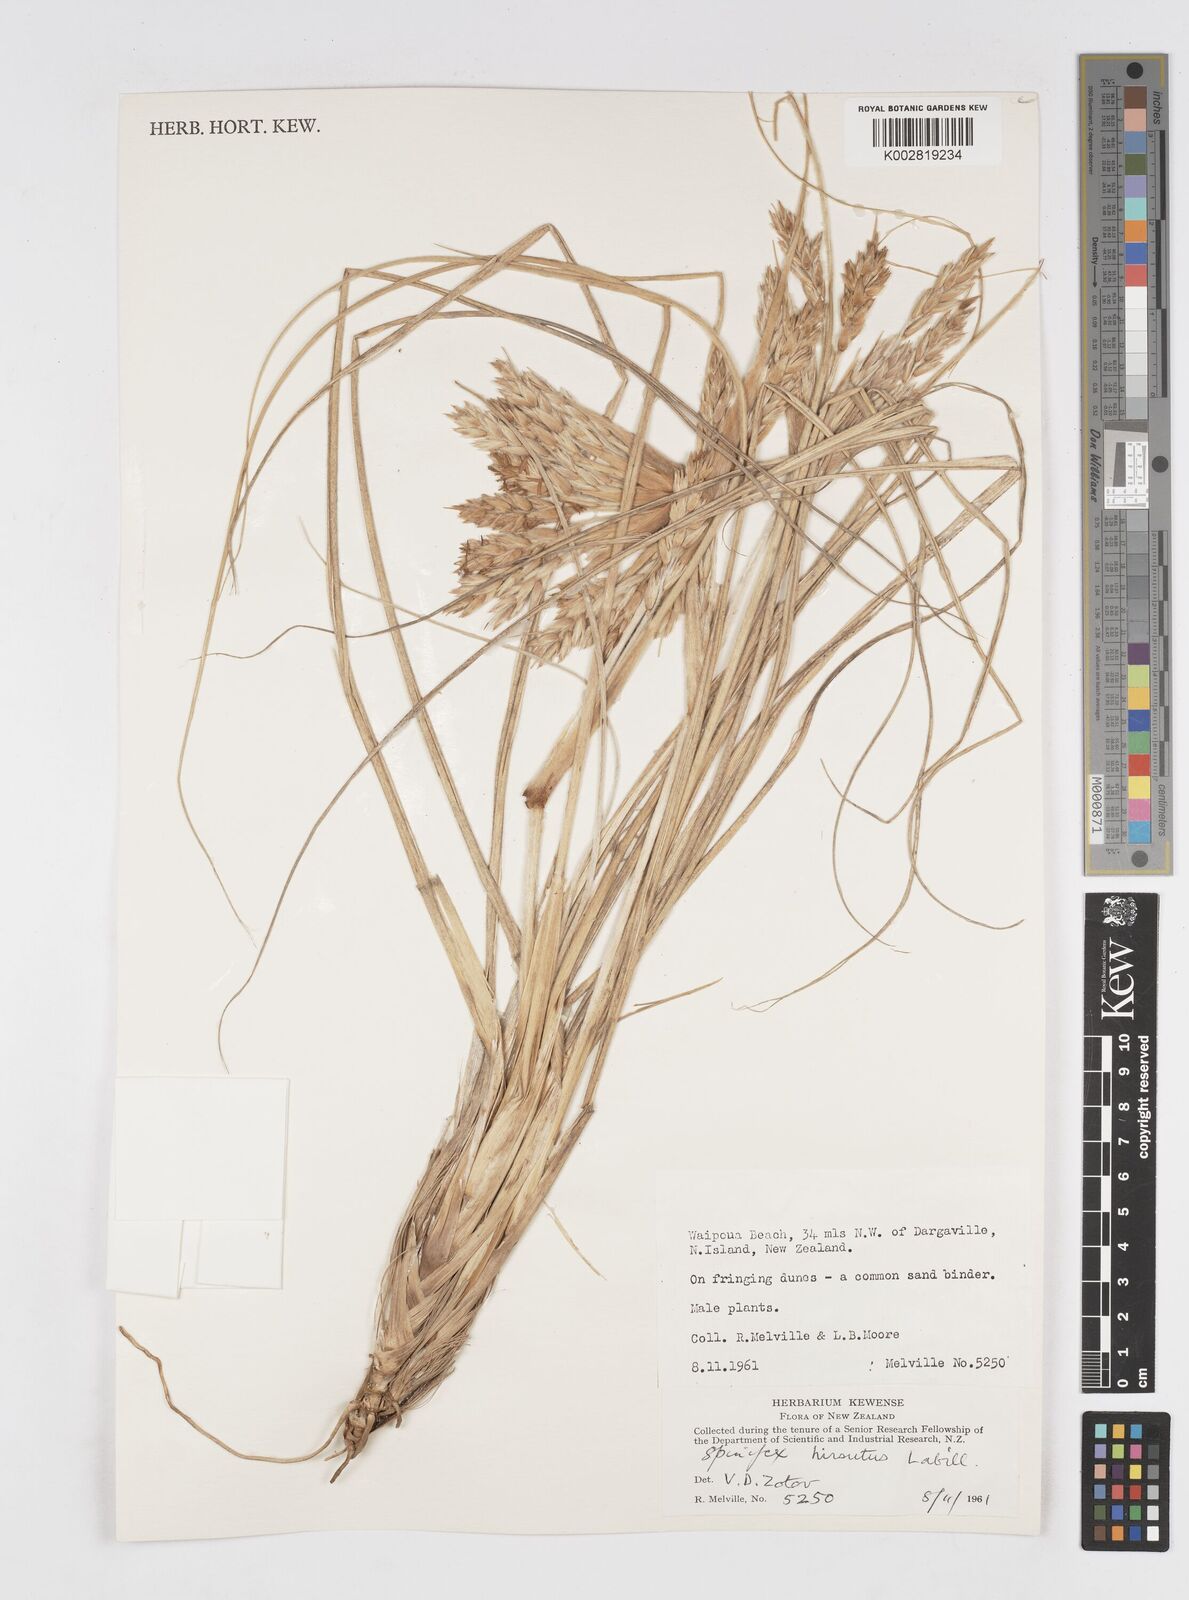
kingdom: Plantae
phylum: Tracheophyta
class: Liliopsida
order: Poales
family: Poaceae
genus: Spinifex
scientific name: Spinifex sericeus
